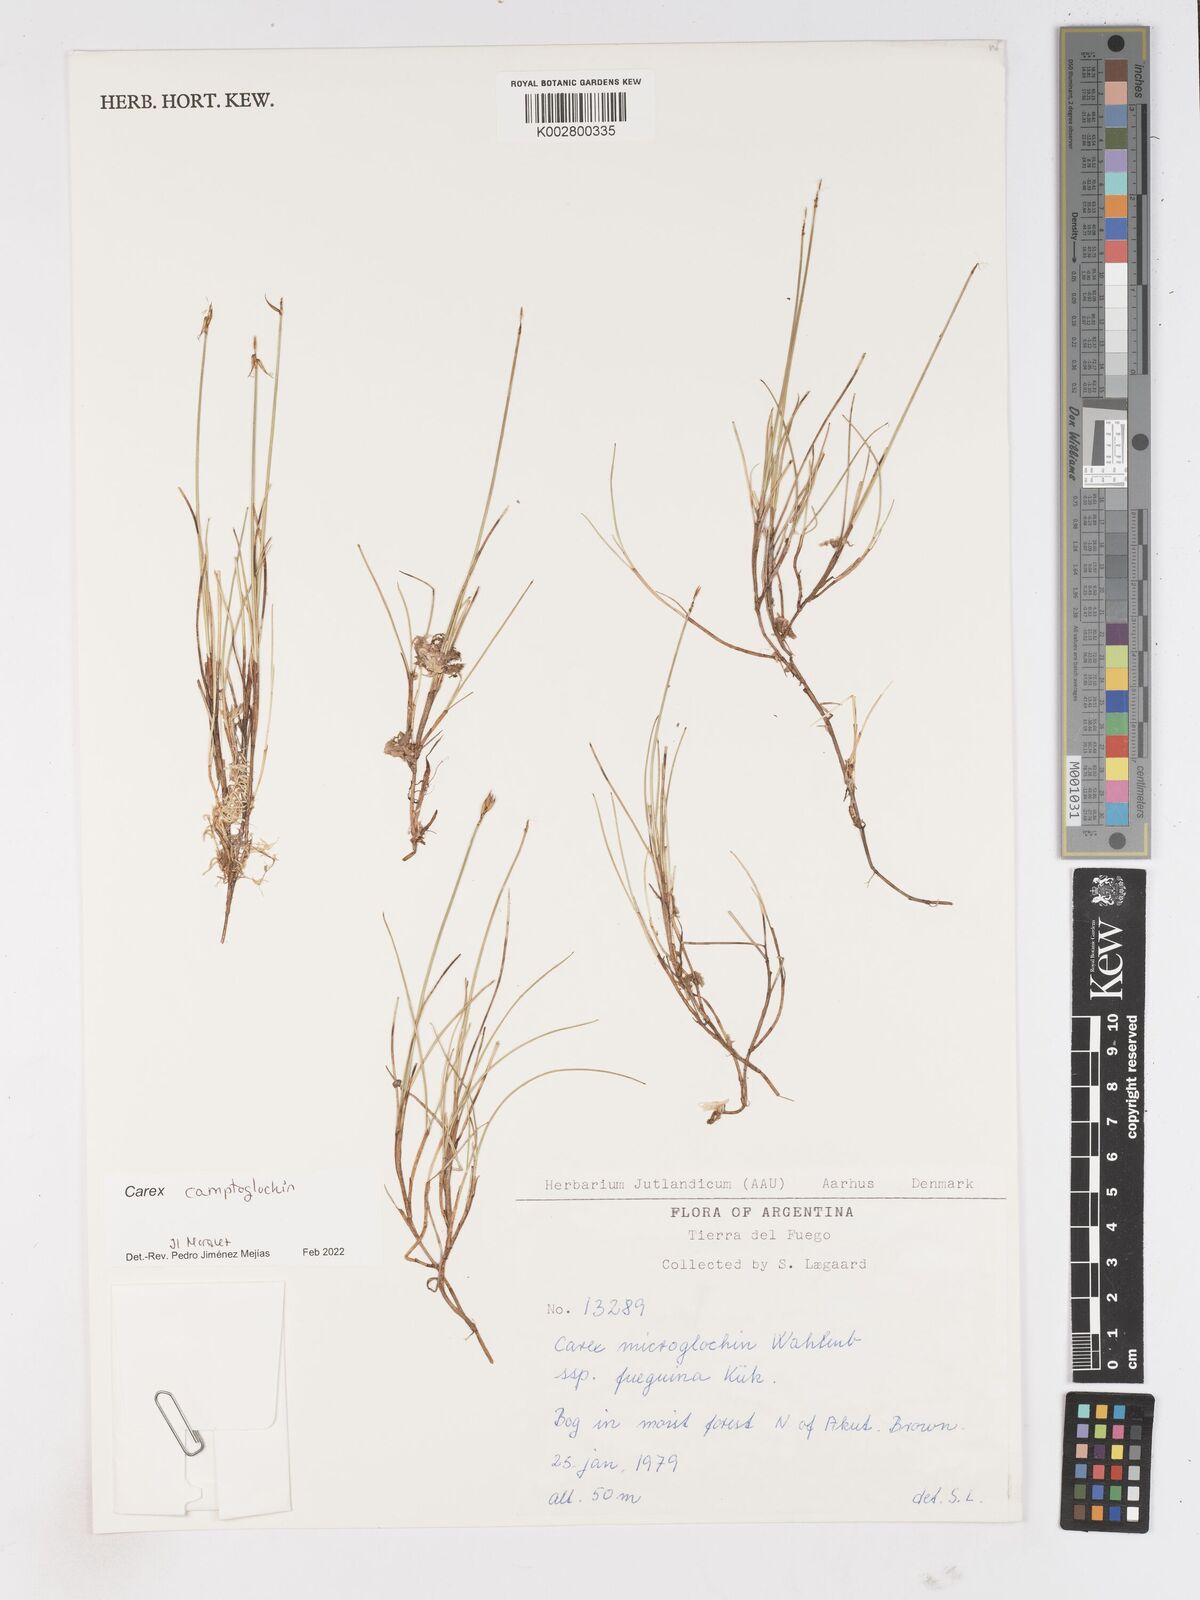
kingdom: Plantae
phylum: Tracheophyta
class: Liliopsida
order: Poales
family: Cyperaceae
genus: Carex
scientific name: Carex camptoglochin
